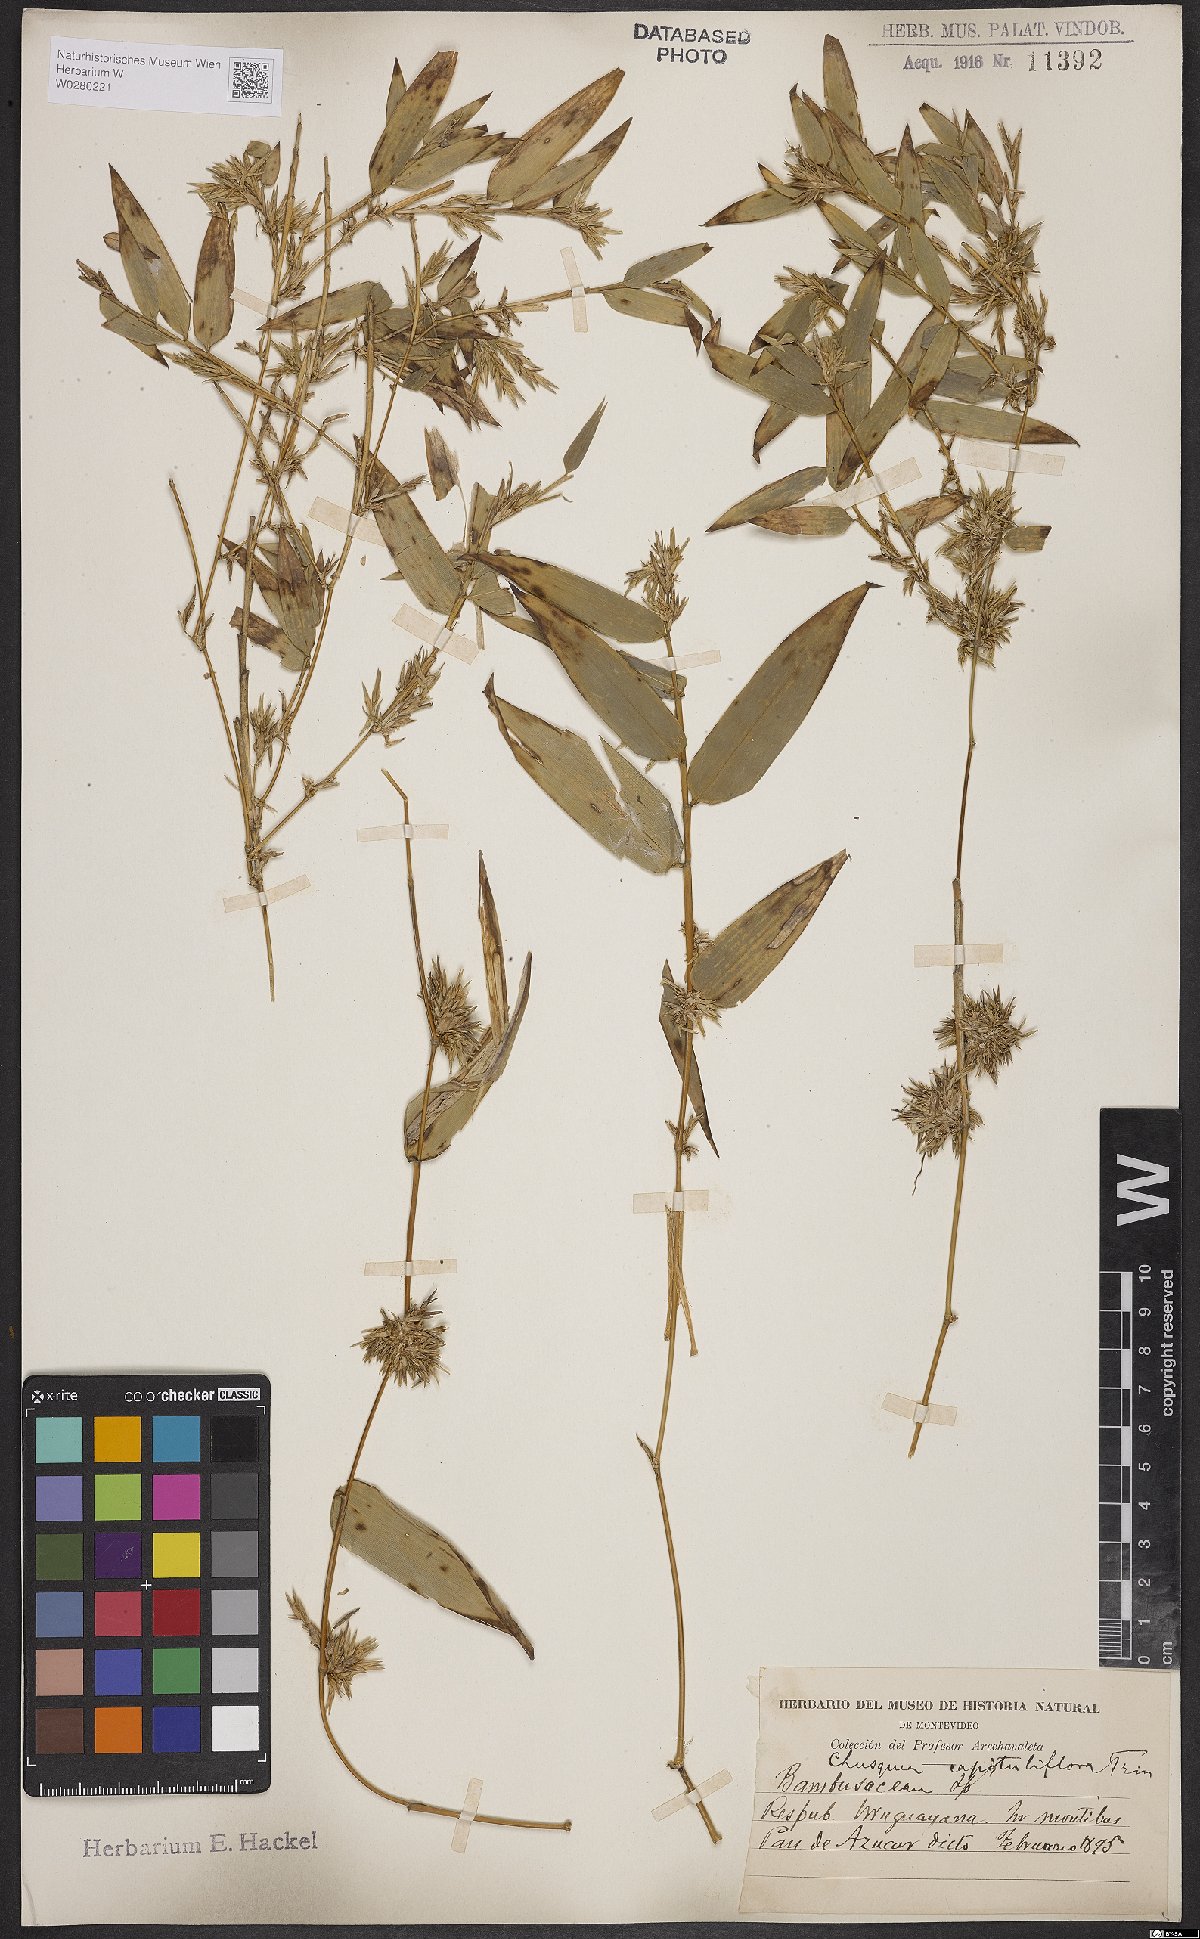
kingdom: Plantae
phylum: Tracheophyta
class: Liliopsida
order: Poales
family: Poaceae
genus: Chusquea
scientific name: Chusquea capituliflora
